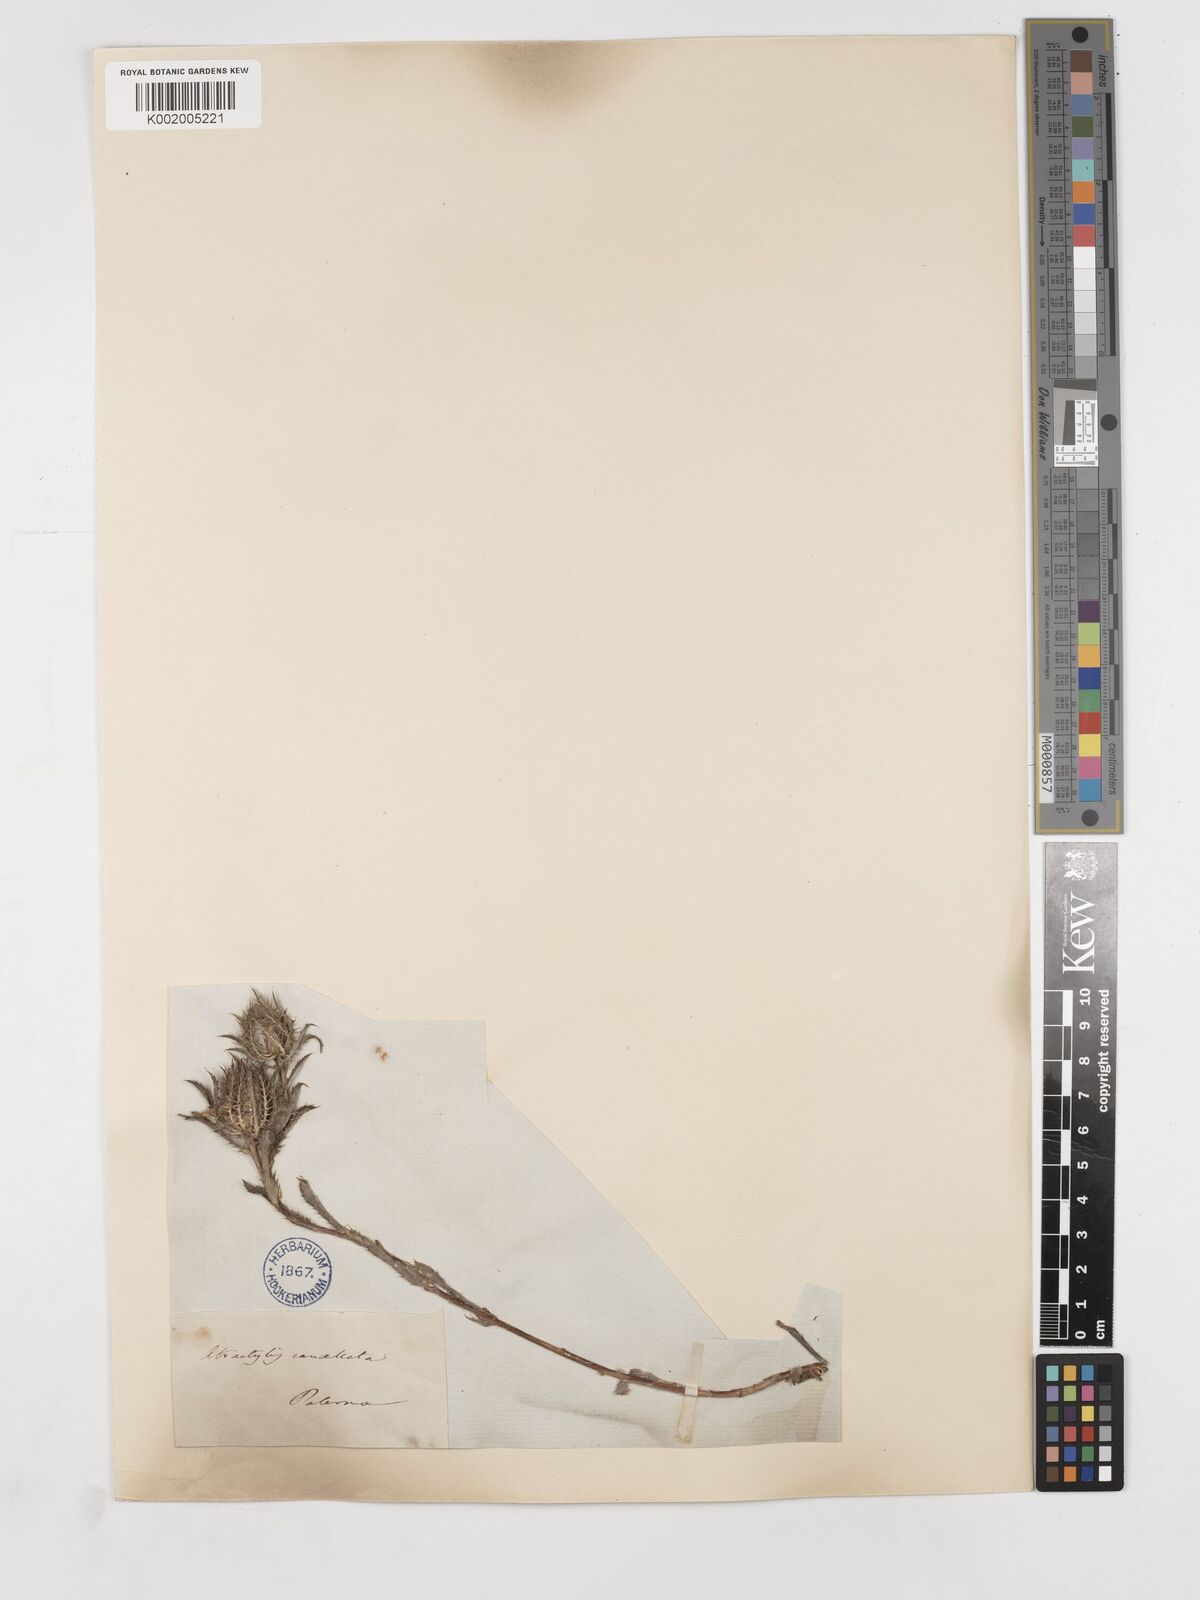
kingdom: Plantae
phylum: Tracheophyta
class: Magnoliopsida
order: Asterales
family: Asteraceae
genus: Atractylis
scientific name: Atractylis cancellata
